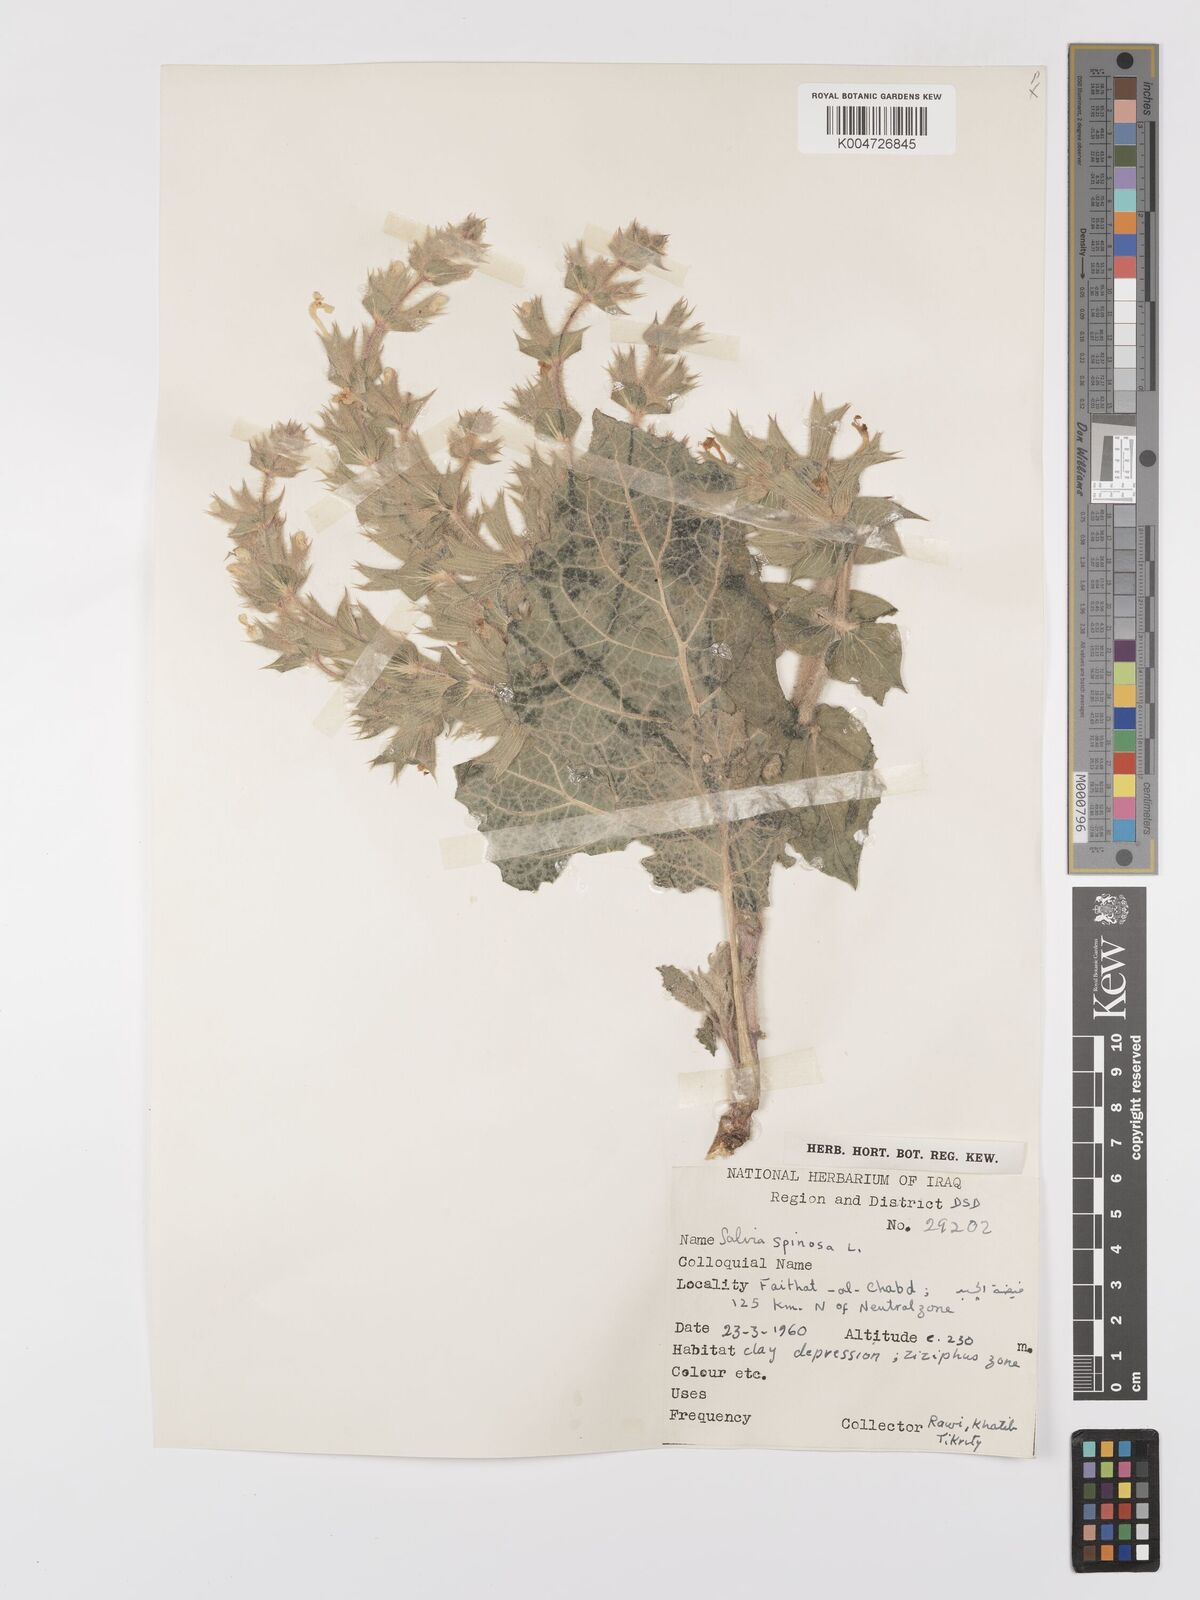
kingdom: Plantae
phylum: Tracheophyta
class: Magnoliopsida
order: Lamiales
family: Lamiaceae
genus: Salvia
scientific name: Salvia
